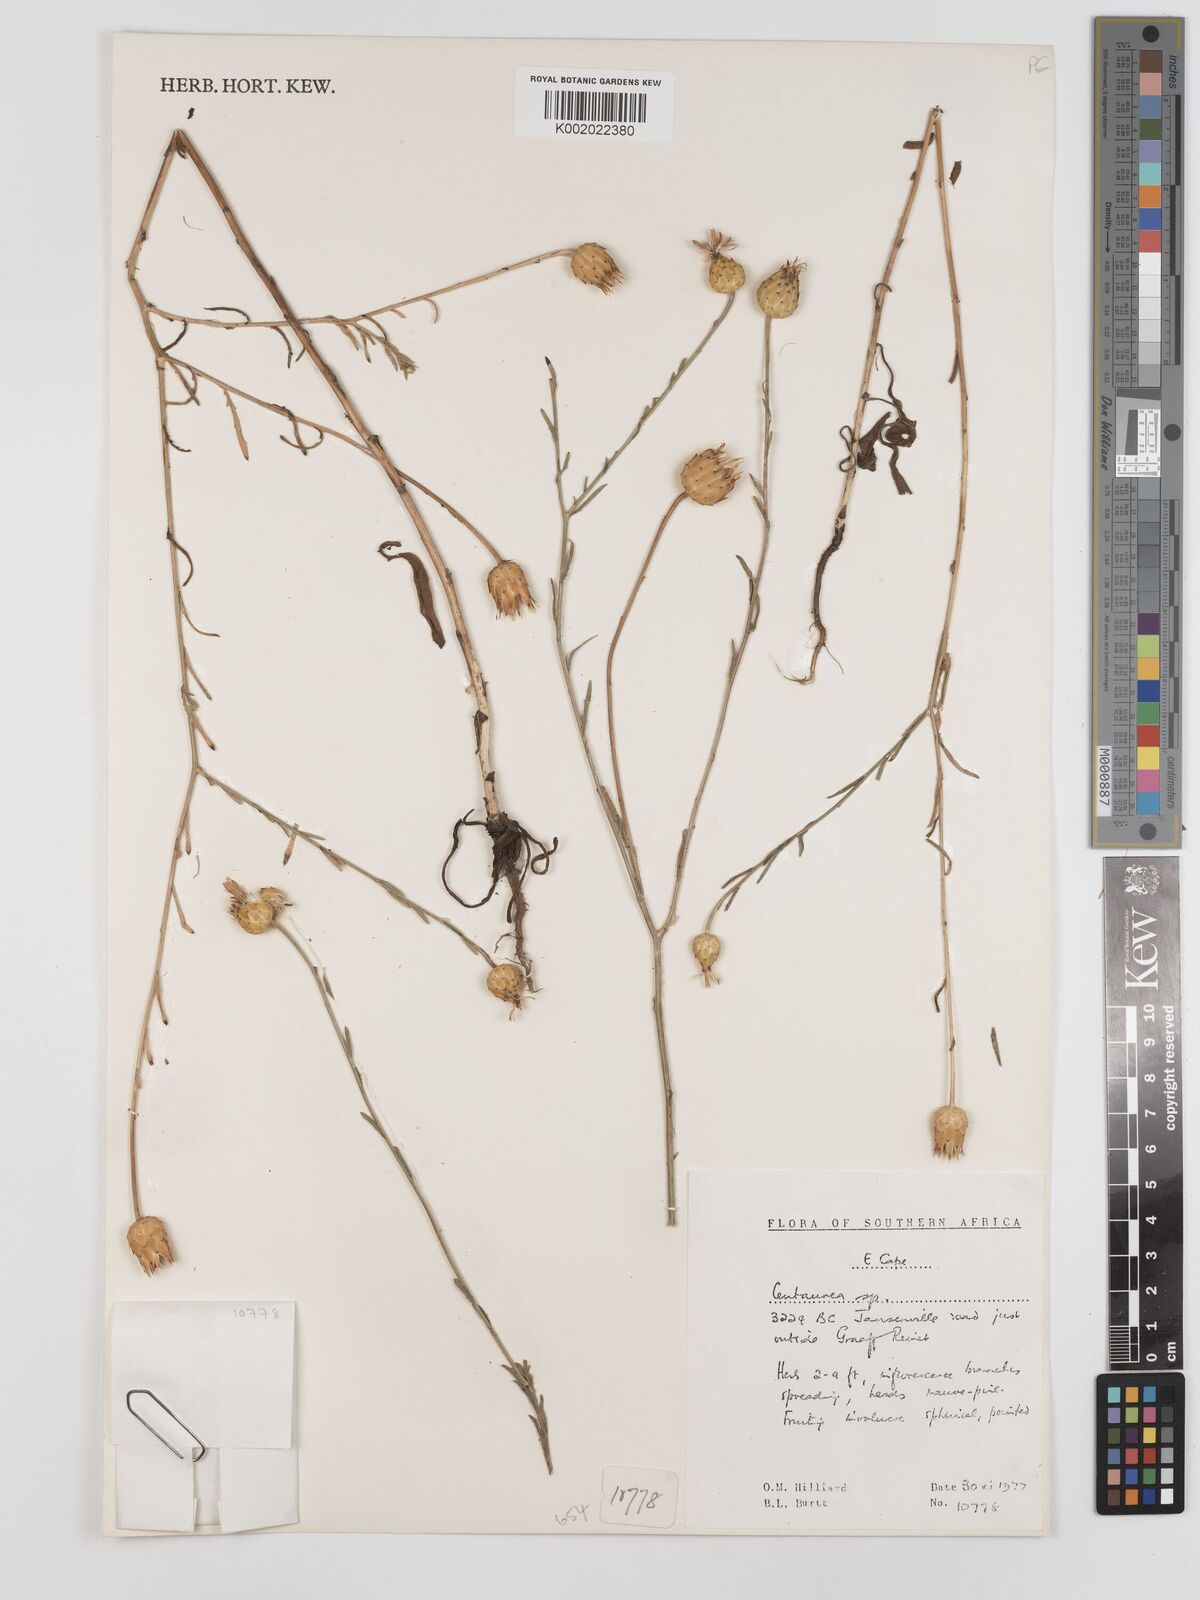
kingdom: Plantae
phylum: Tracheophyta
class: Magnoliopsida
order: Asterales
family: Asteraceae
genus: Centaurea
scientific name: Centaurea
